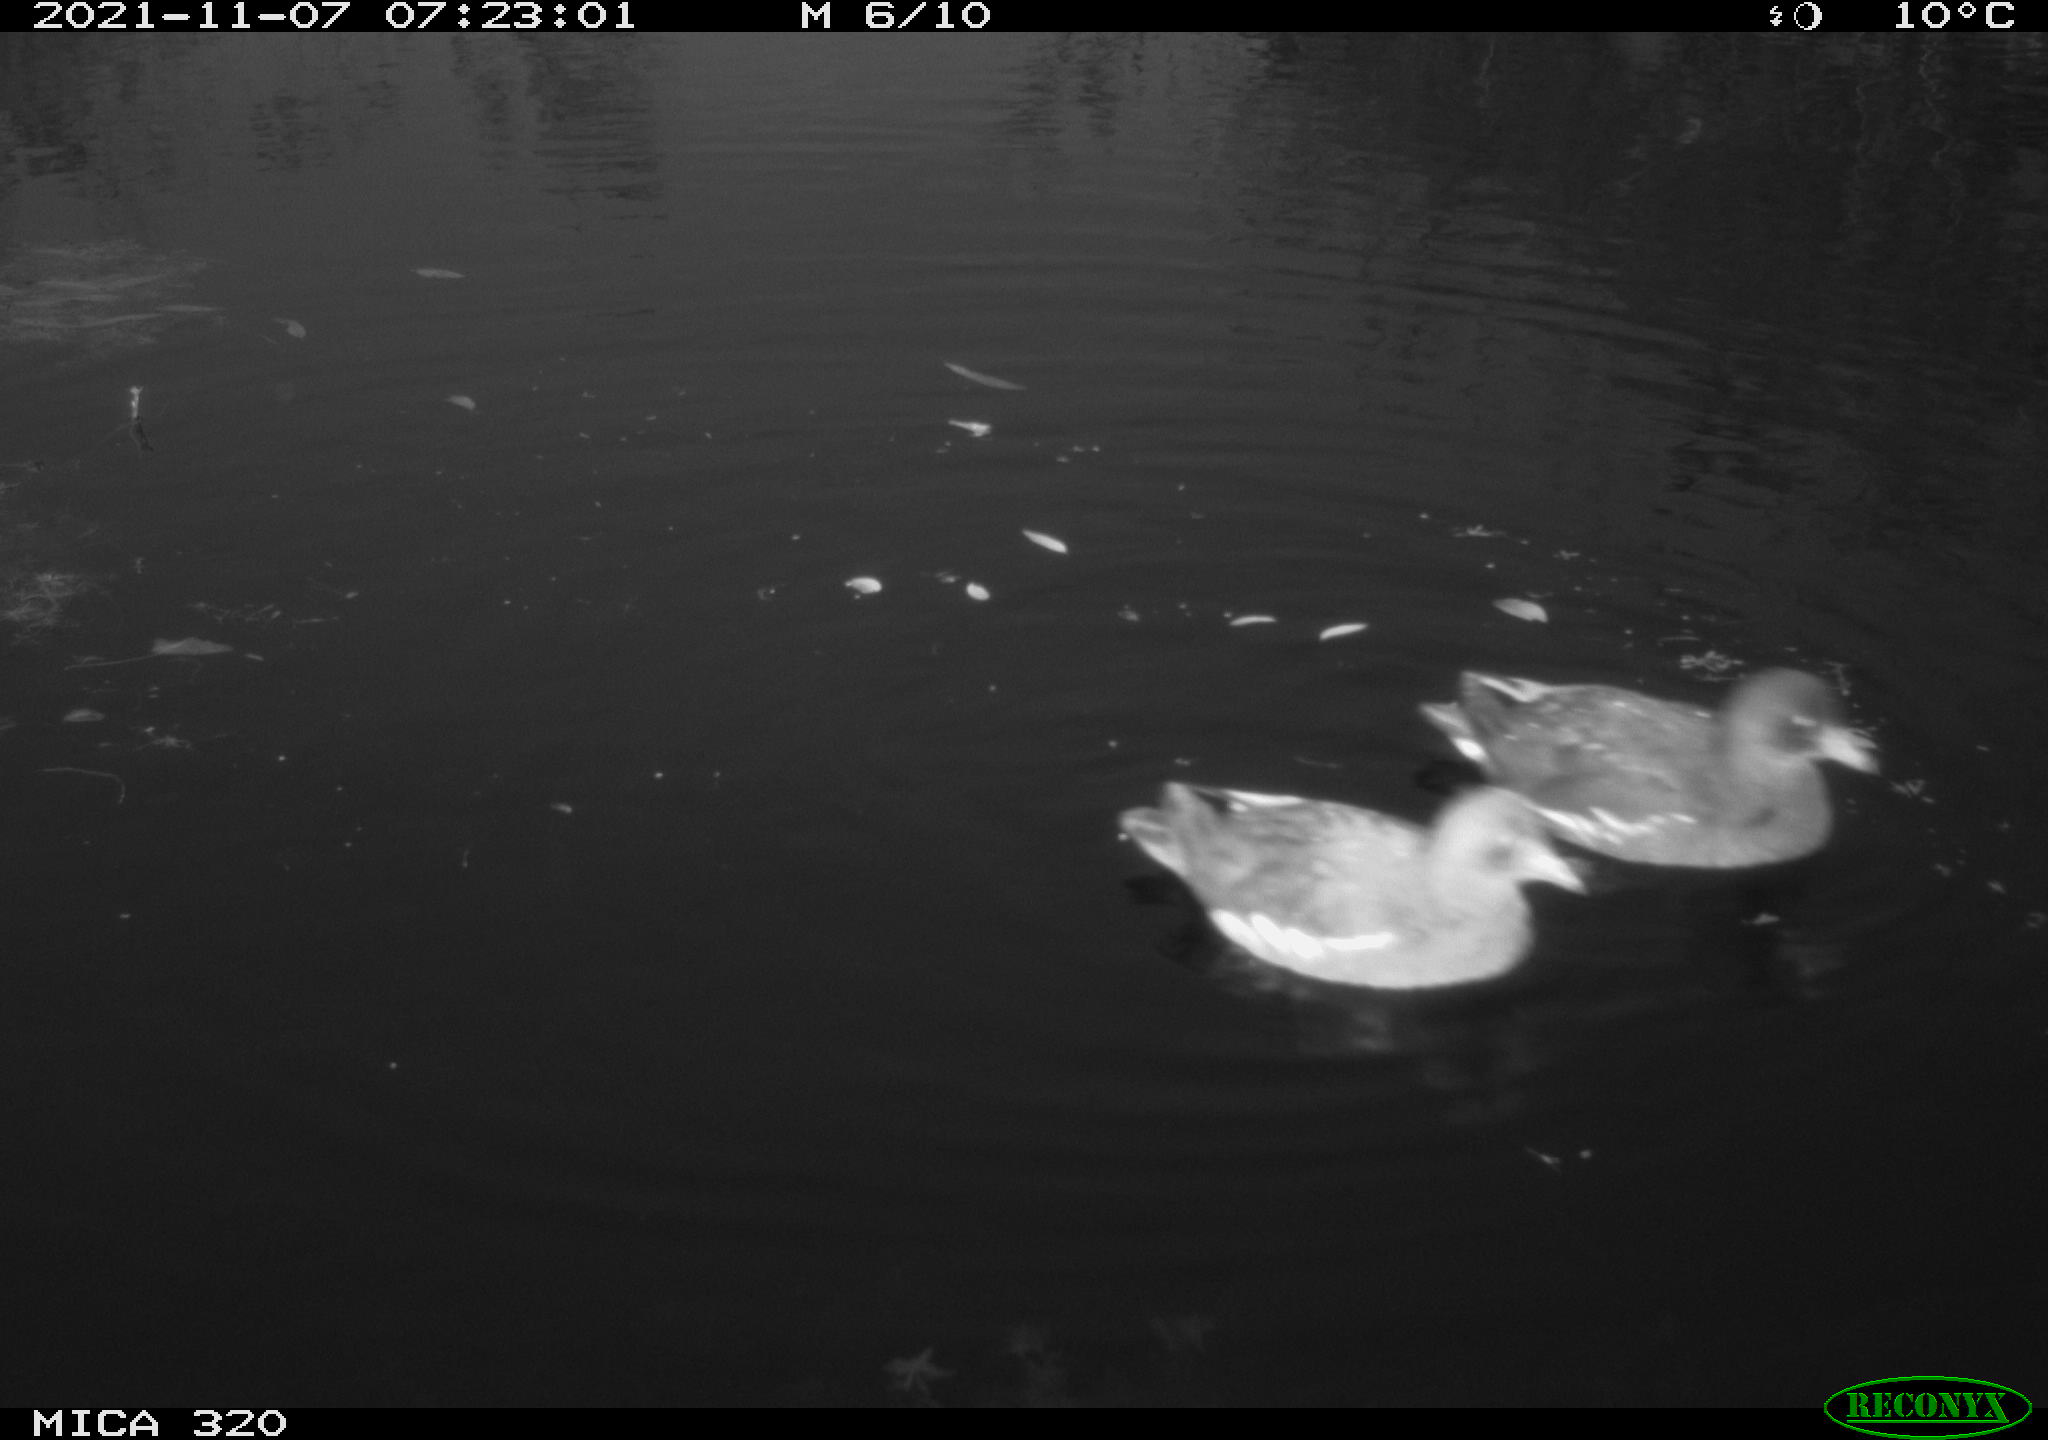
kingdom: Animalia
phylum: Chordata
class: Aves
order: Anseriformes
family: Anatidae
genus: Mareca
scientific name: Mareca strepera
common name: Gadwall
